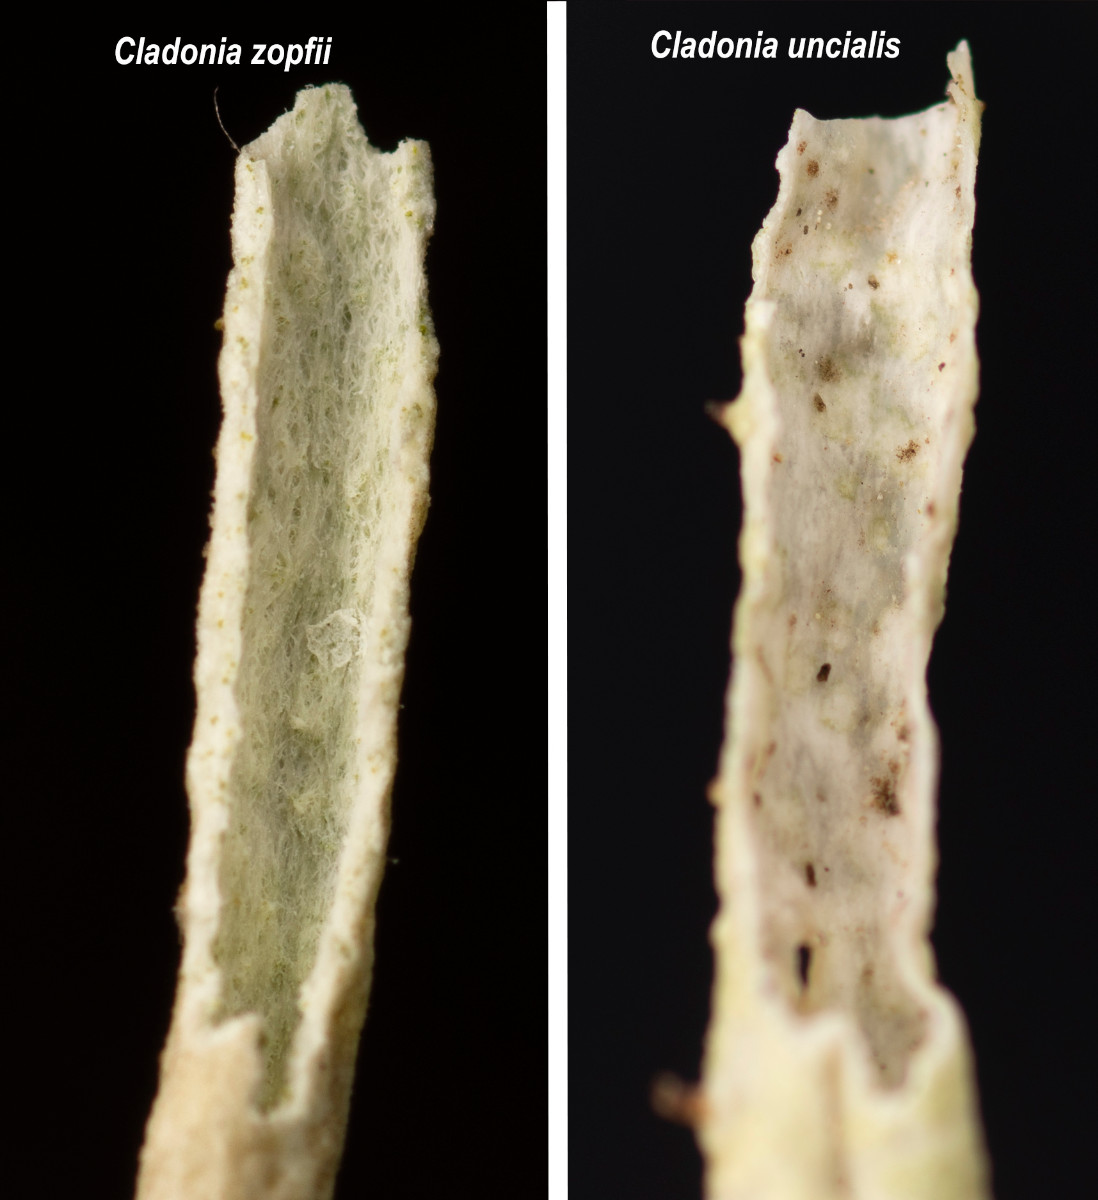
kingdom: Fungi
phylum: Ascomycota
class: Lecanoromycetes
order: Lecanorales
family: Cladoniaceae
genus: Cladonia
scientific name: Cladonia zopfii
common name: klit-bægerlav
